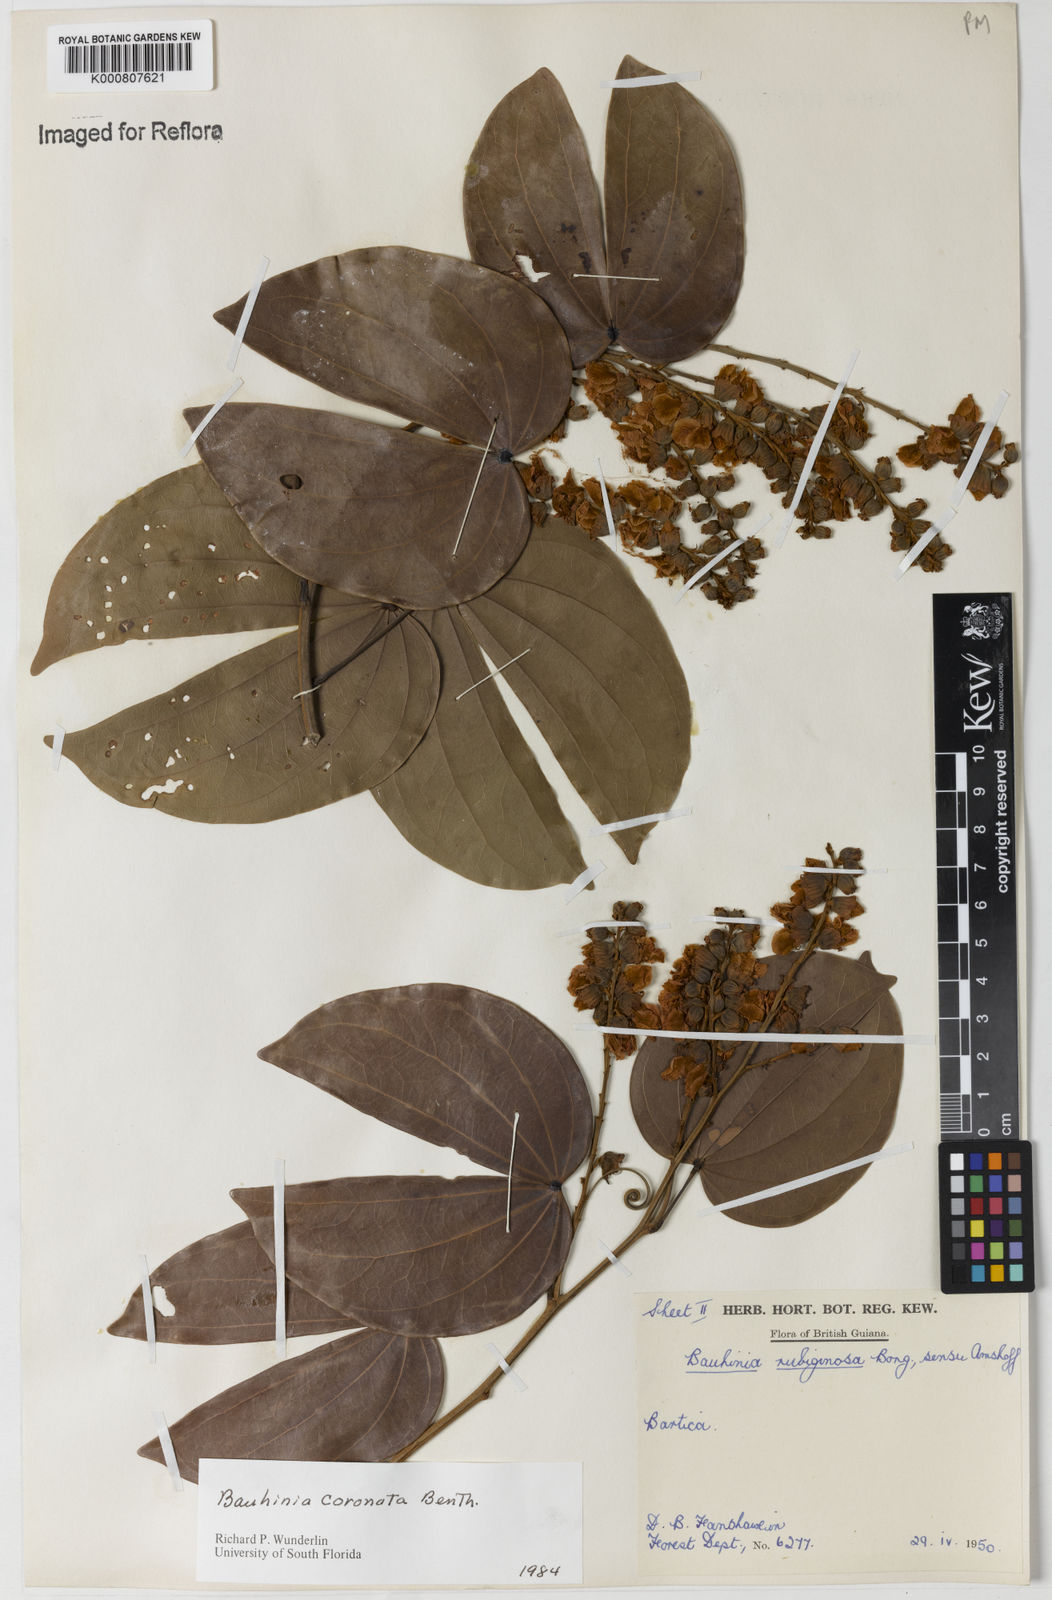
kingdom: Plantae
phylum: Tracheophyta
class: Magnoliopsida
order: Fabales
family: Fabaceae
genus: Schnella
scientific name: Schnella outimouta
